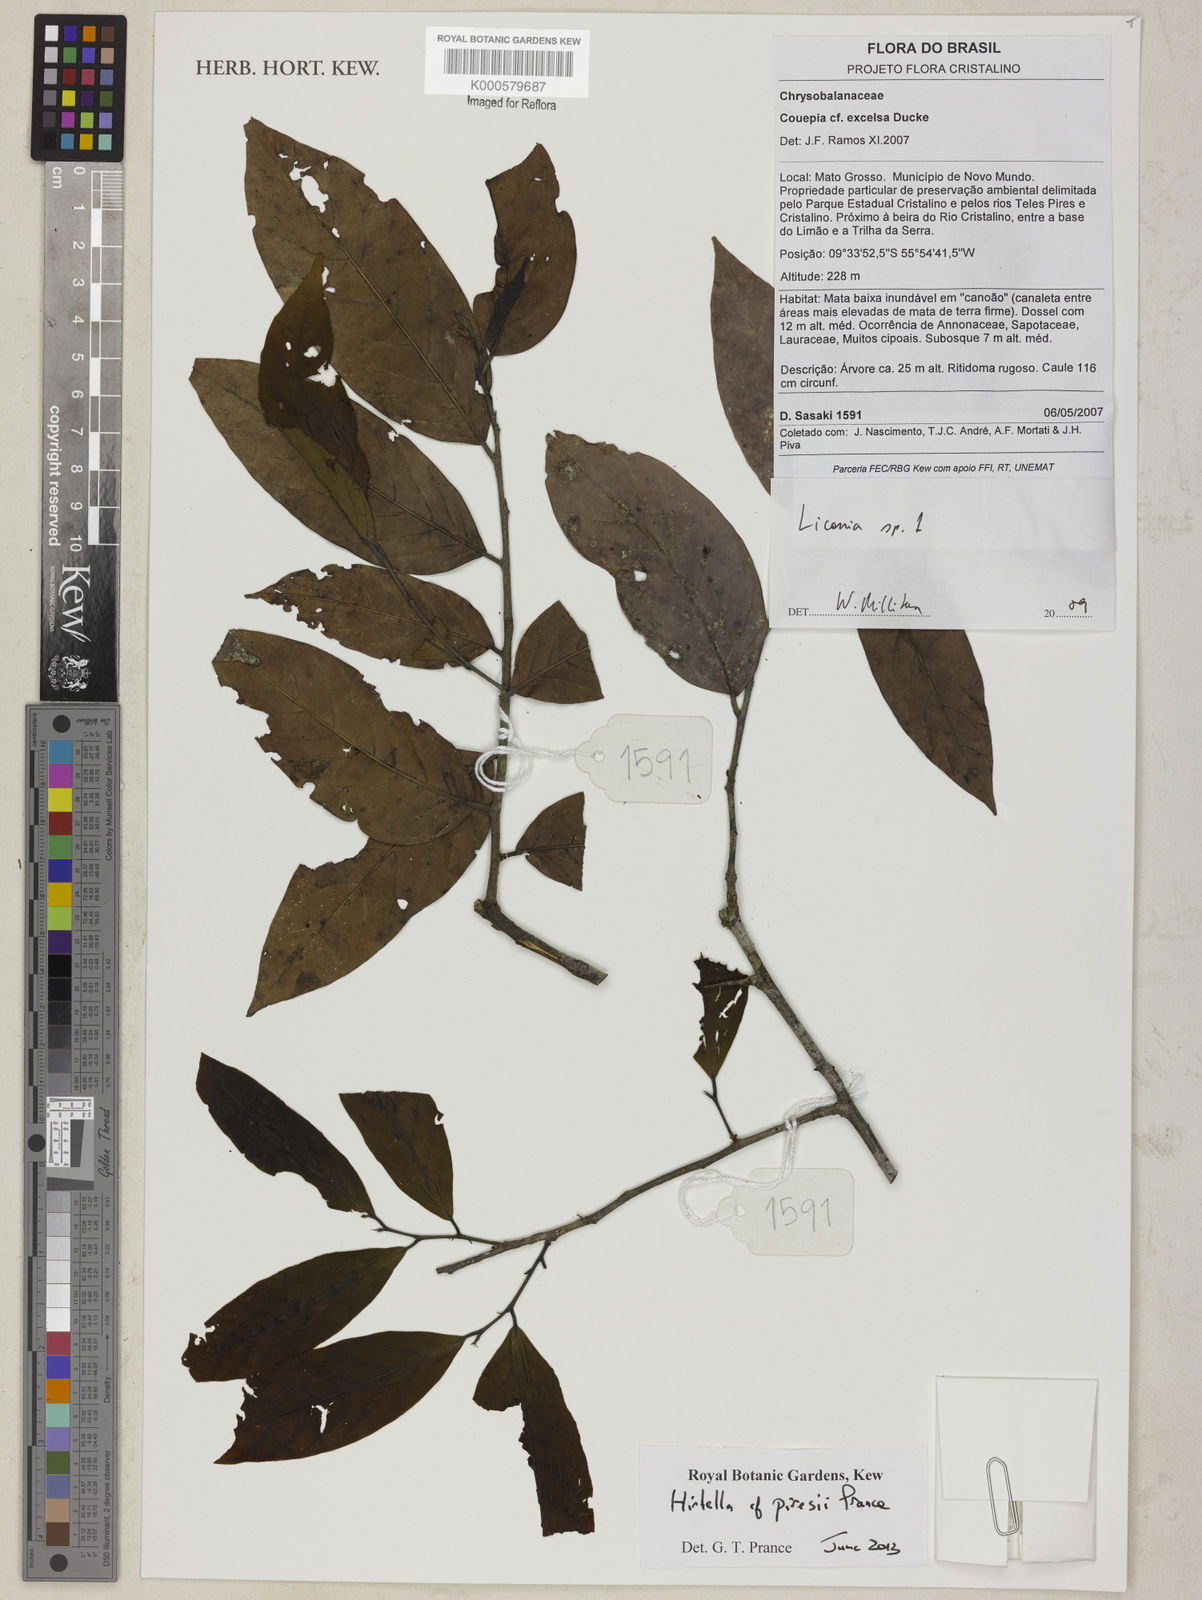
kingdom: Plantae
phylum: Tracheophyta
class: Magnoliopsida
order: Malpighiales
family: Chrysobalanaceae
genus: Licania
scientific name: Licania
